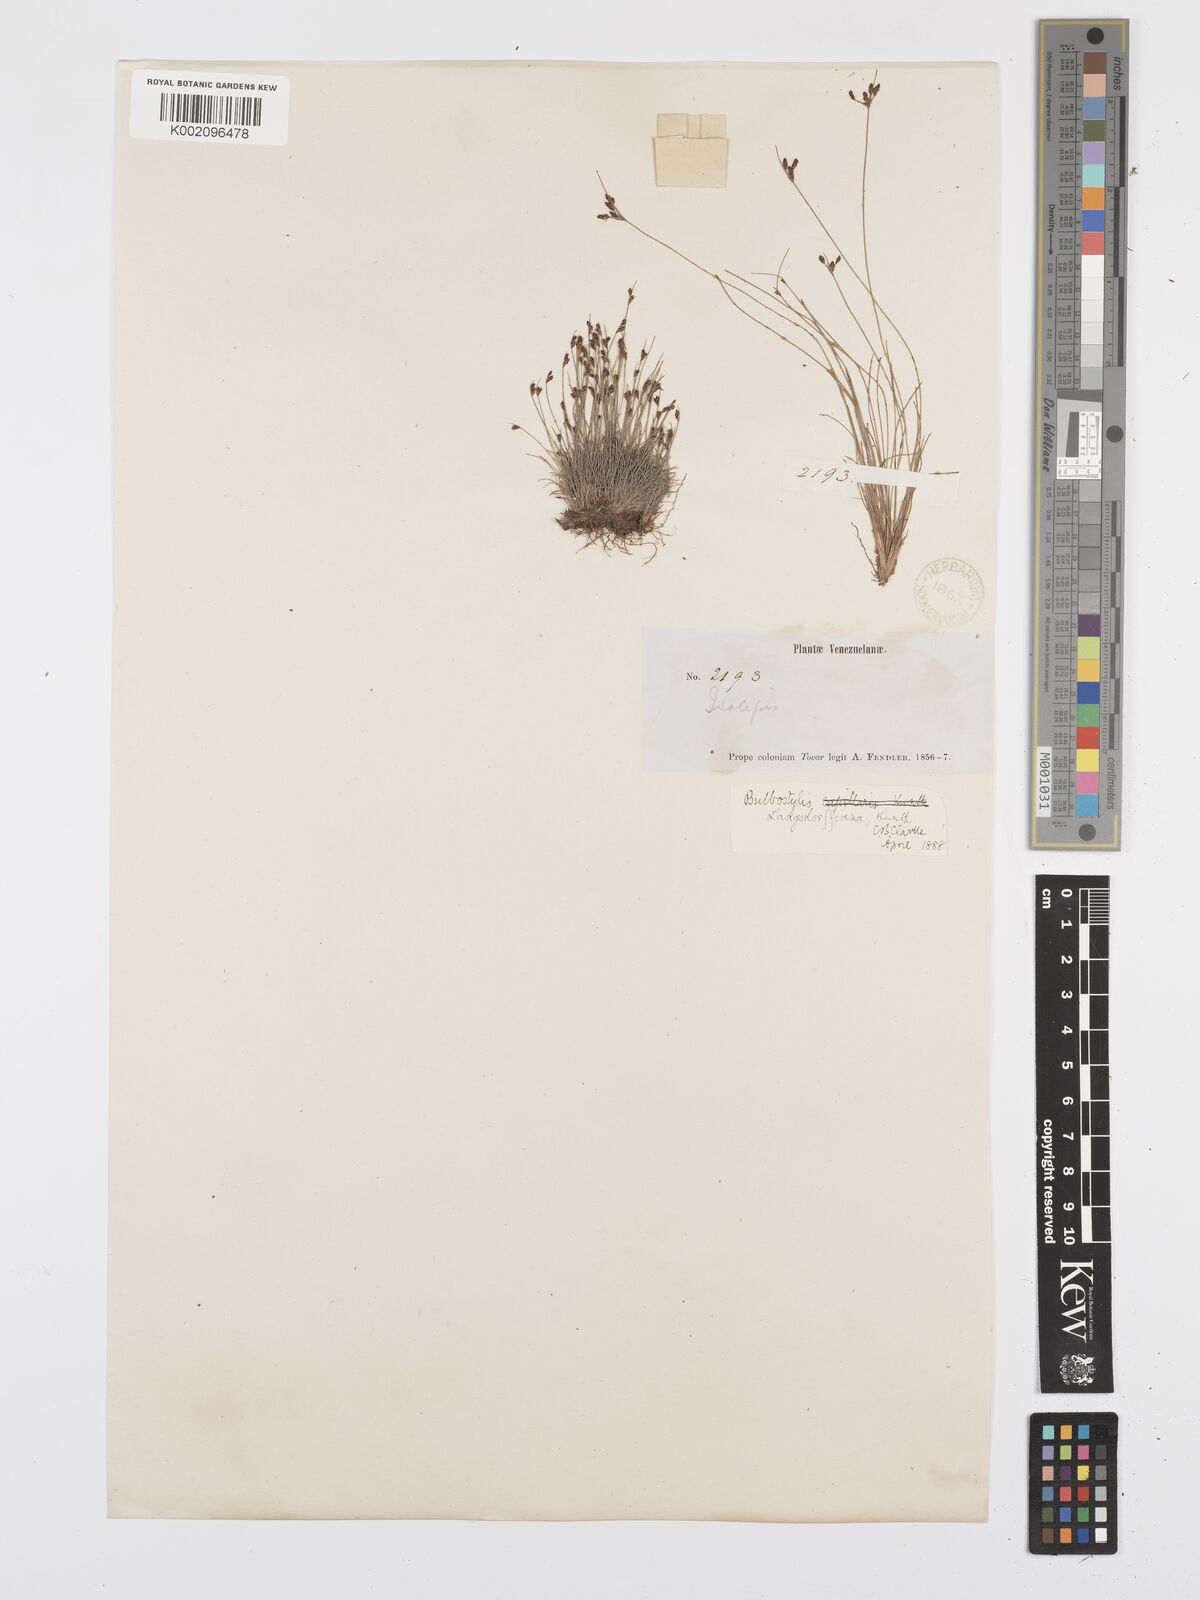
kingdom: Plantae
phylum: Tracheophyta
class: Liliopsida
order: Poales
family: Cyperaceae
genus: Bulbostylis
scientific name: Bulbostylis juncoides
